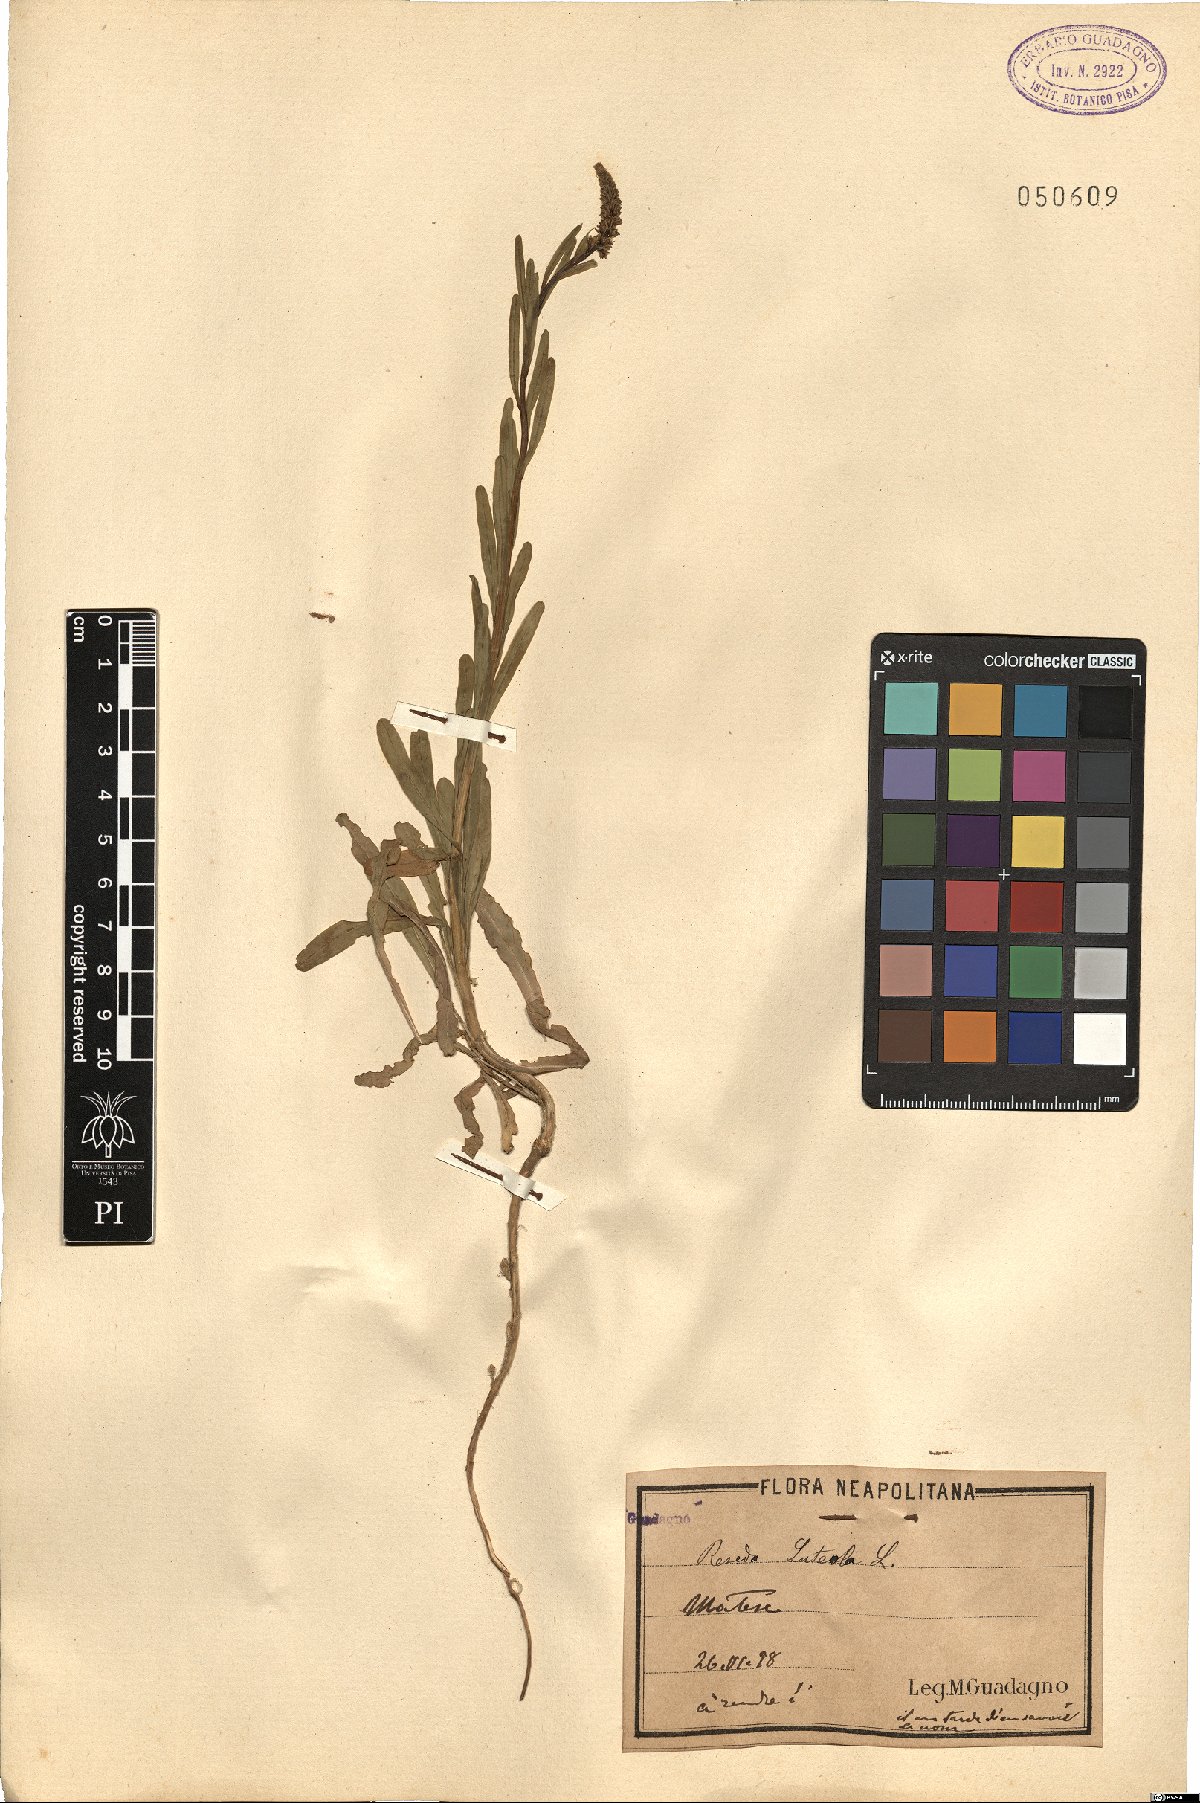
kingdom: Plantae
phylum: Tracheophyta
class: Magnoliopsida
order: Brassicales
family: Resedaceae
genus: Reseda
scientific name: Reseda luteola
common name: Weld
